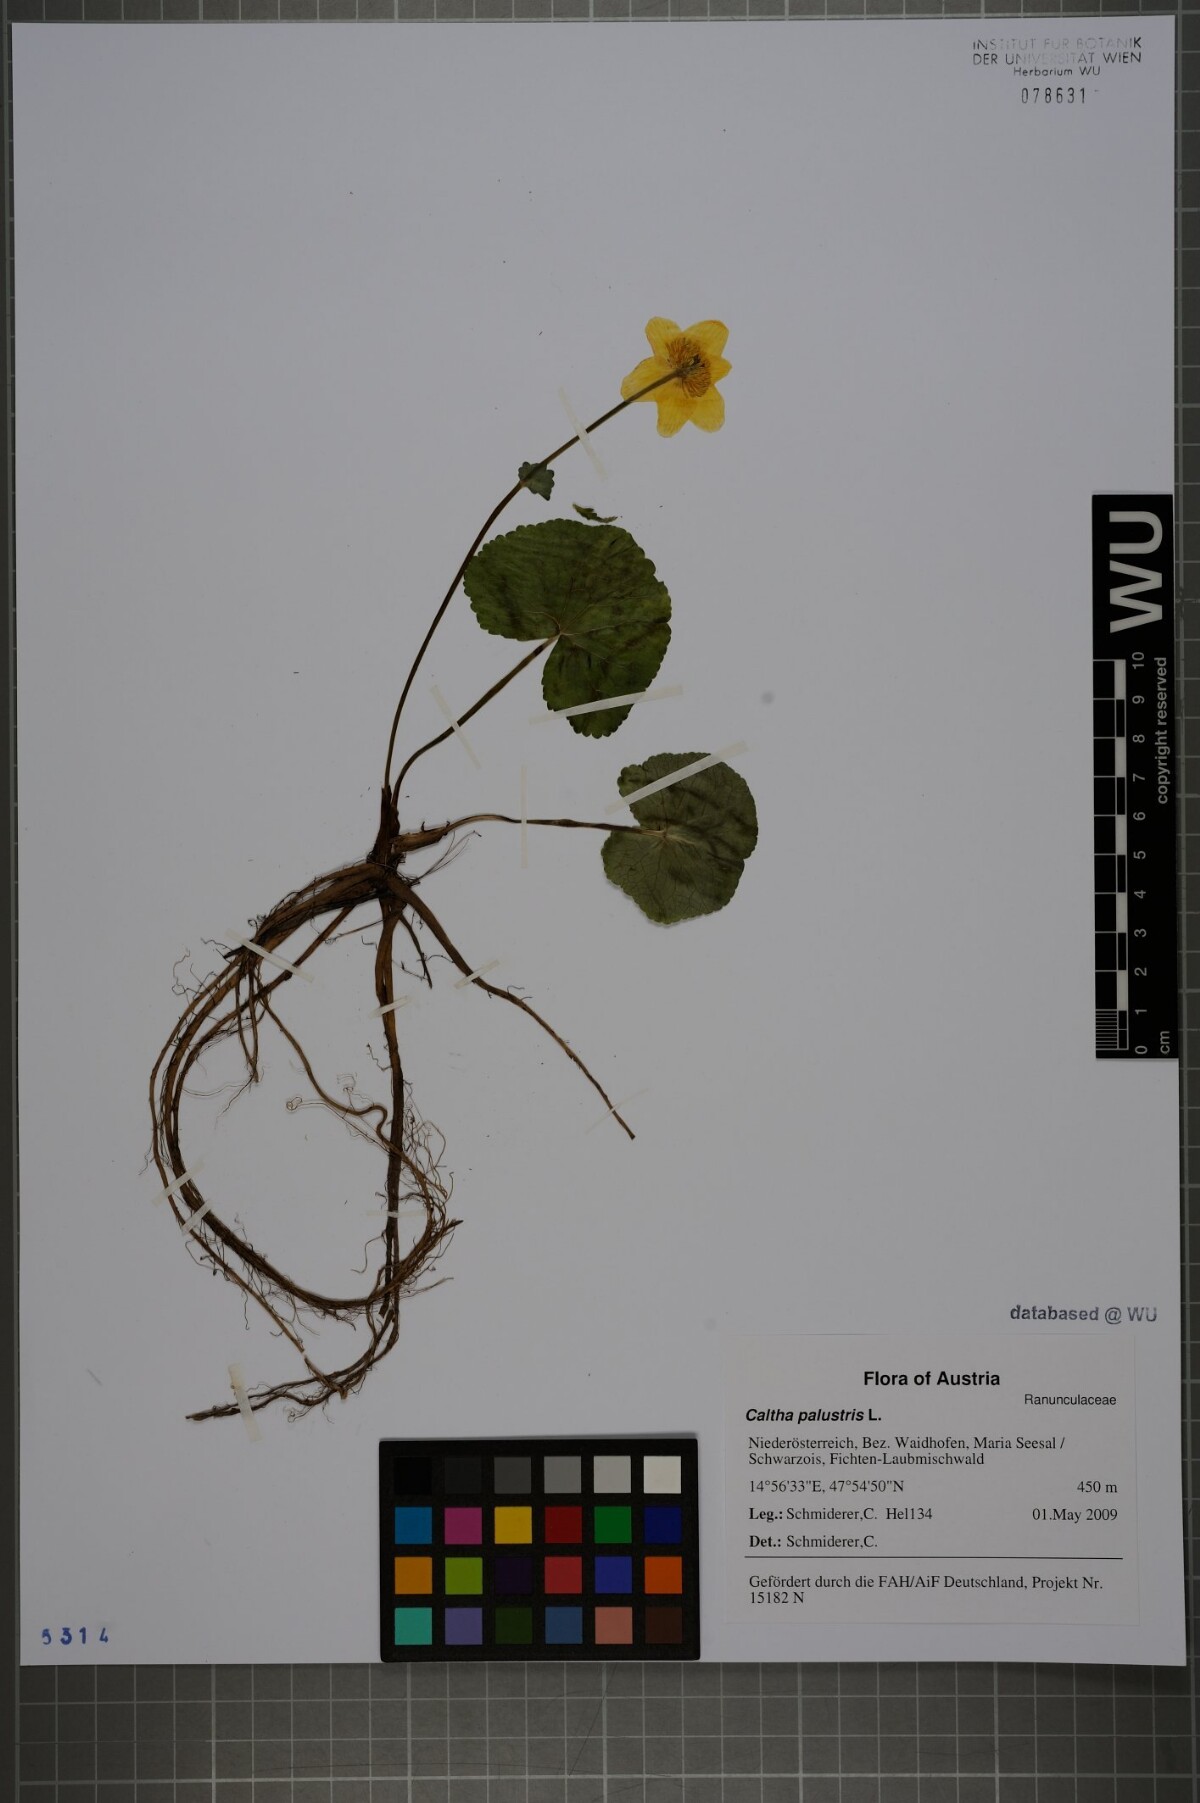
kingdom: Plantae
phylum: Tracheophyta
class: Magnoliopsida
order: Ranunculales
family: Ranunculaceae
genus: Caltha
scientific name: Caltha palustris
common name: Marsh marigold
